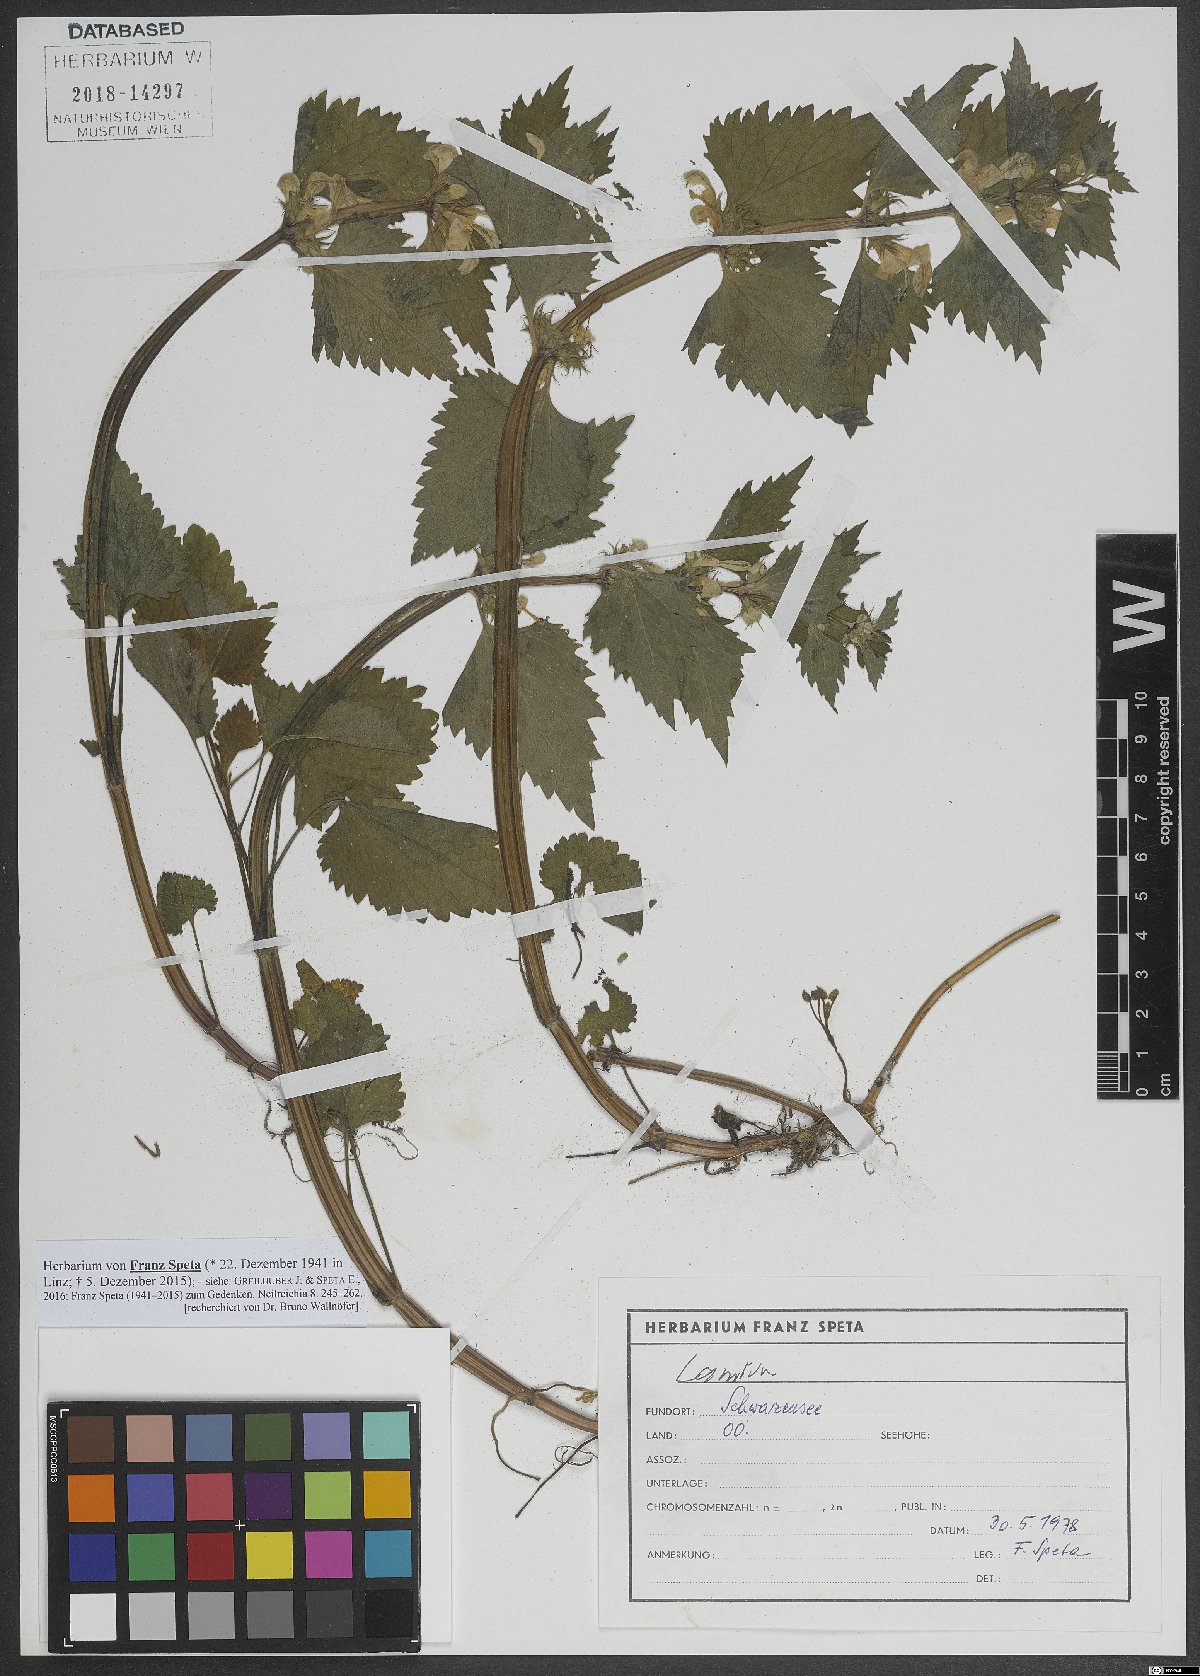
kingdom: Plantae
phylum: Tracheophyta
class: Magnoliopsida
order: Lamiales
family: Lamiaceae
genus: Lamium
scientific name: Lamium
